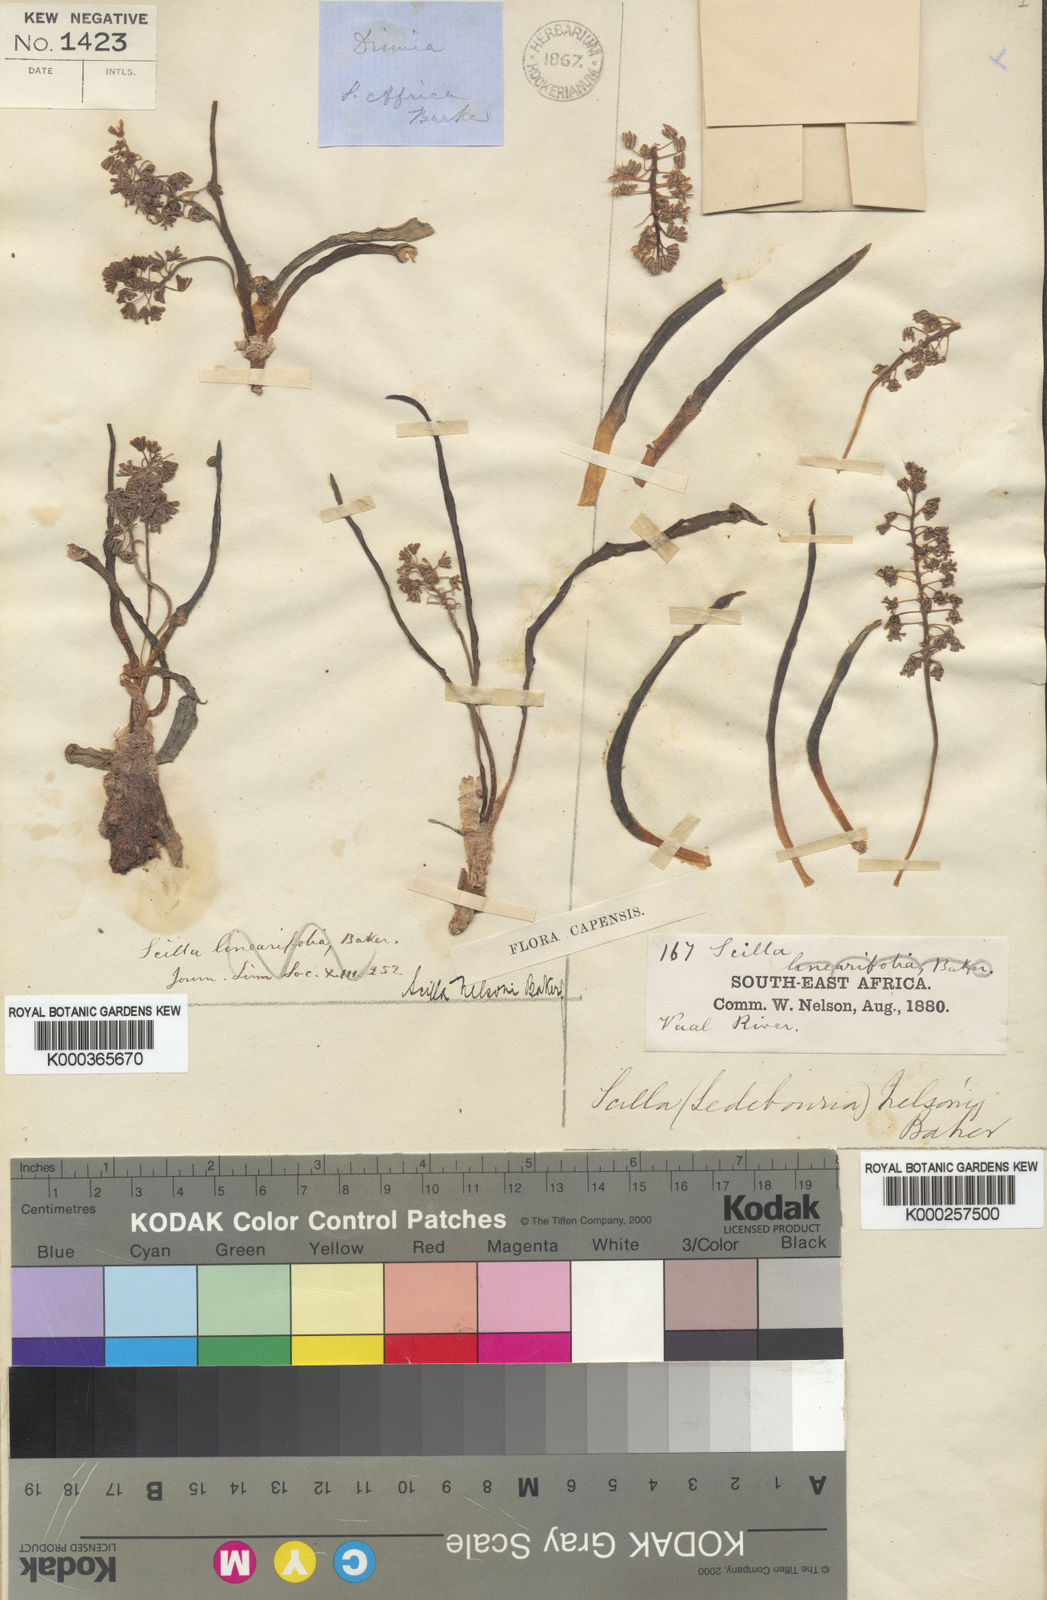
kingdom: Plantae
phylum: Tracheophyta
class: Liliopsida
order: Asparagales
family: Asparagaceae
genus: Ledebouria
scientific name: Ledebouria undulata
